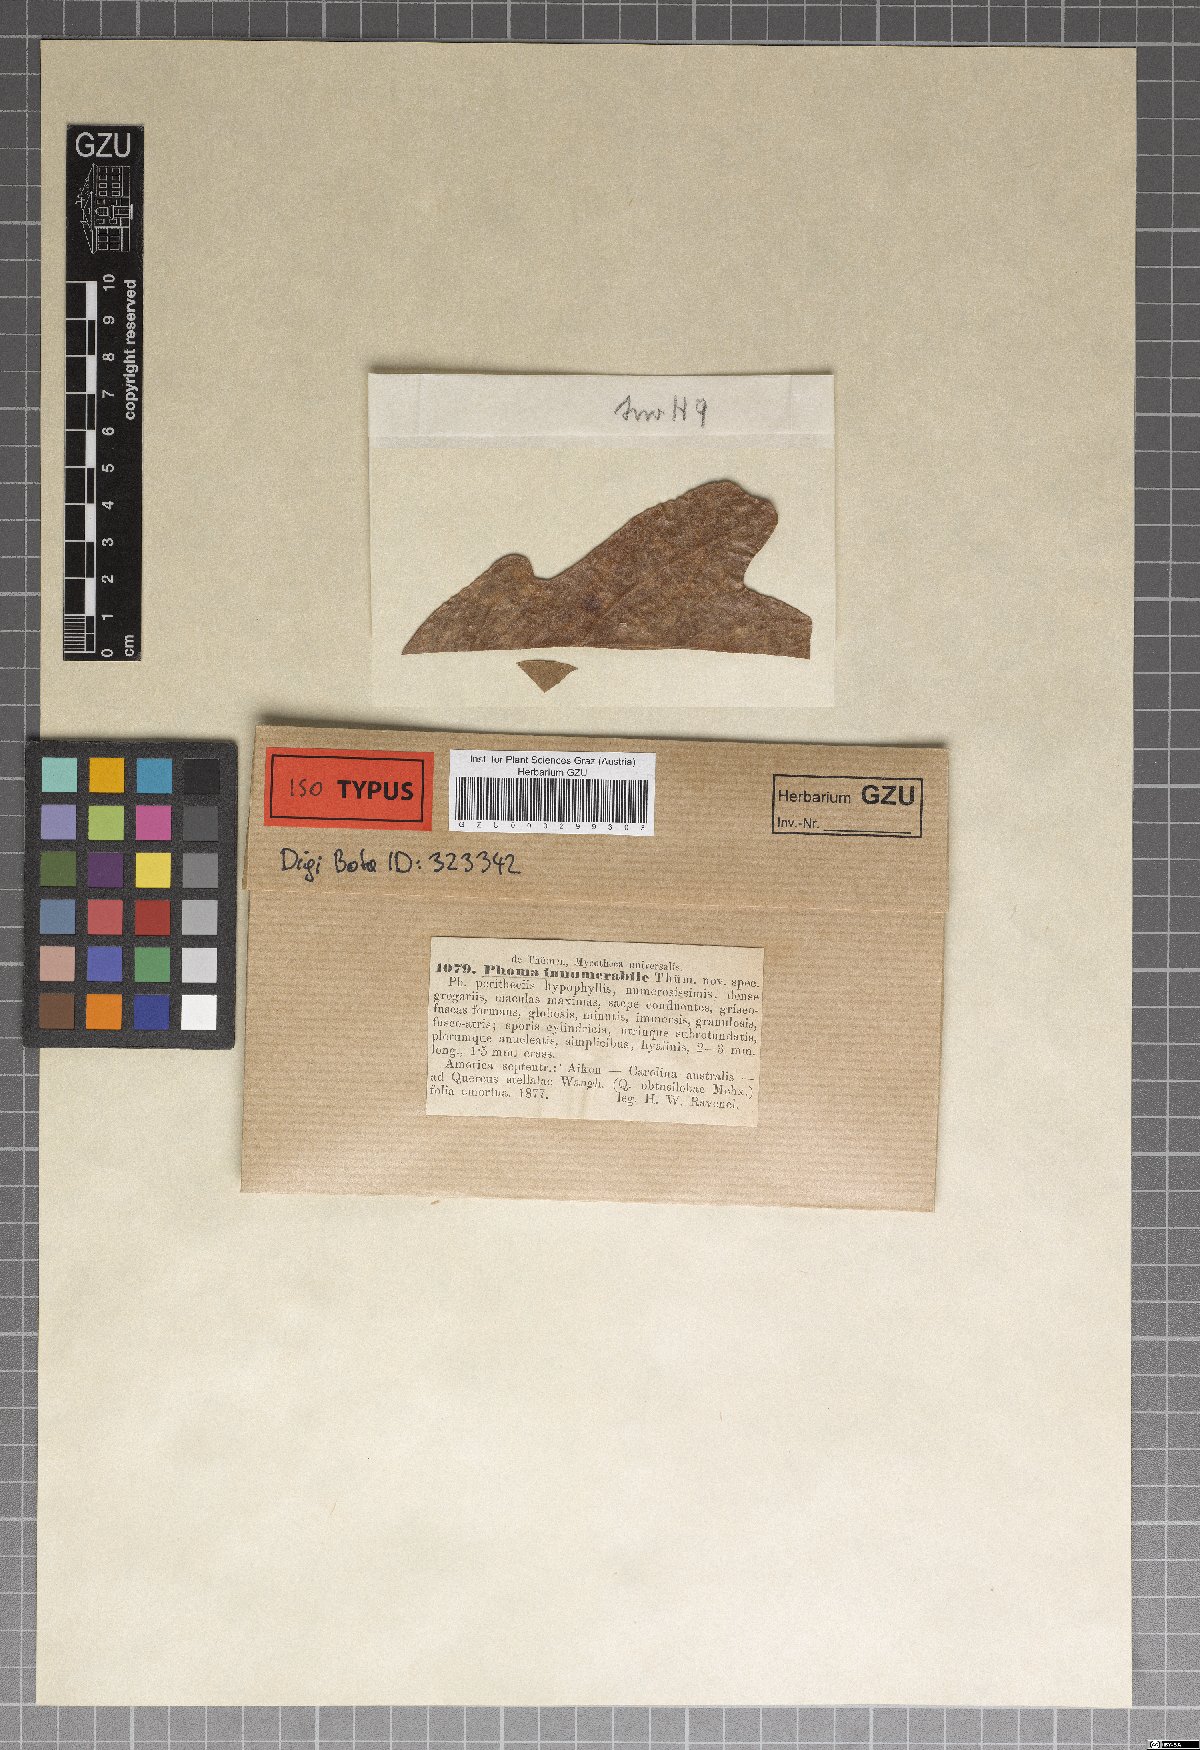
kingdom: Fungi
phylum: Ascomycota
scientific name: Ascomycota
